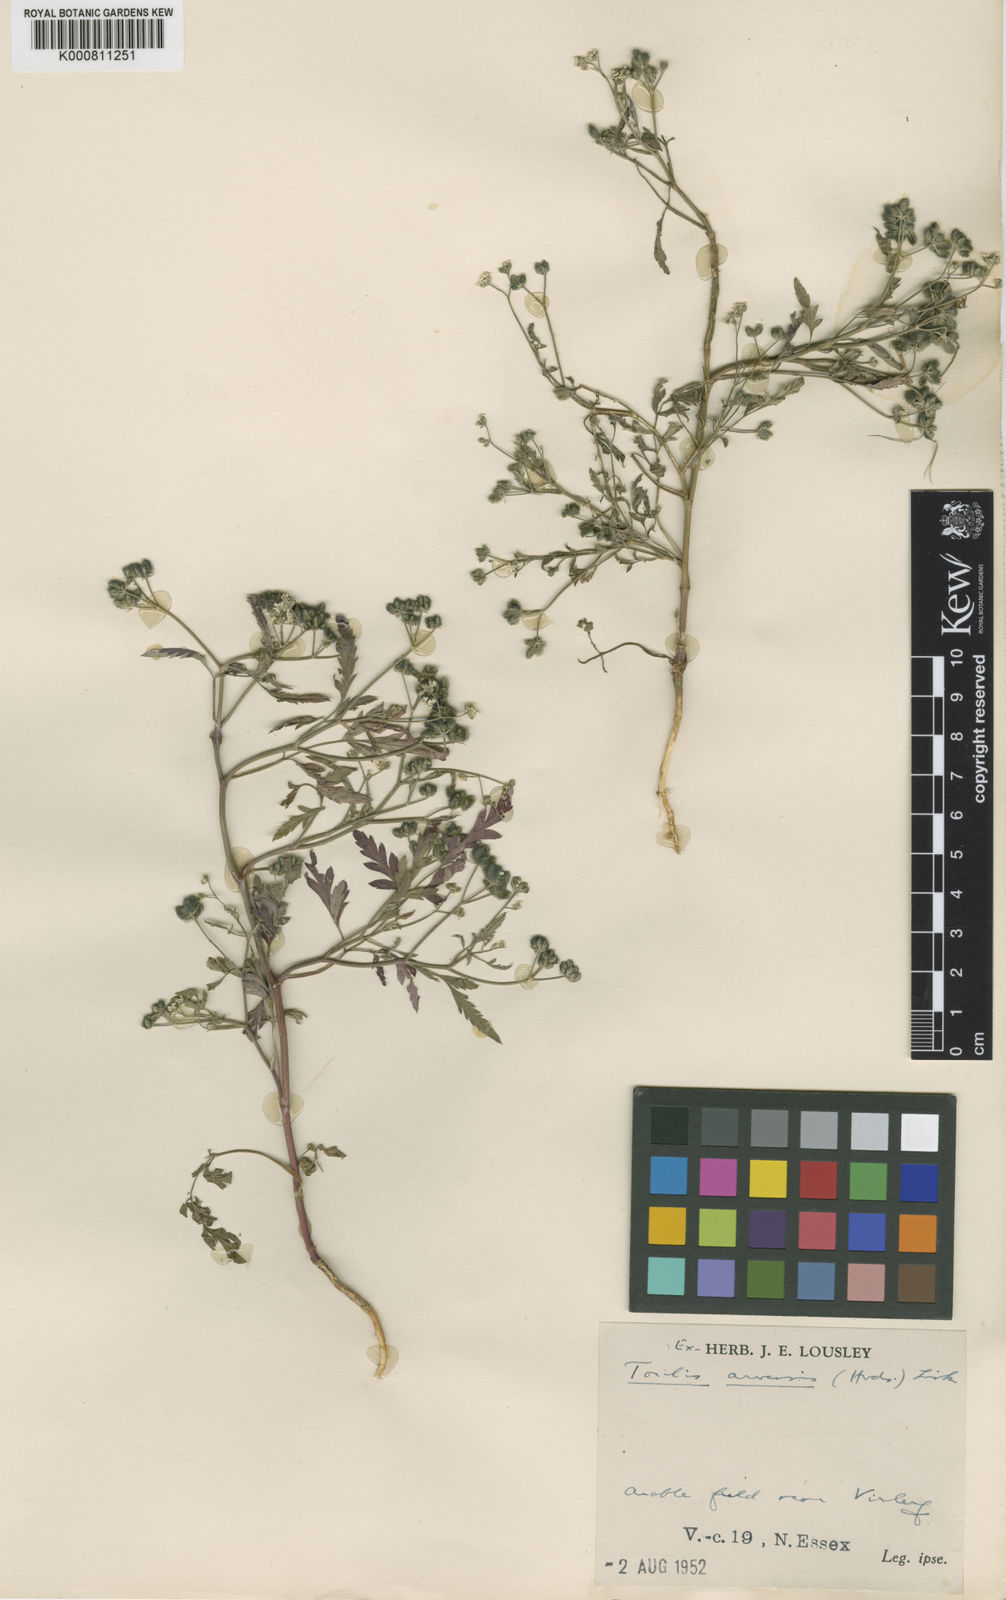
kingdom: Plantae
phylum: Tracheophyta
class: Magnoliopsida
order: Apiales
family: Apiaceae
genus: Torilis
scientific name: Torilis arvensis
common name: Spreading hedge-parsley
